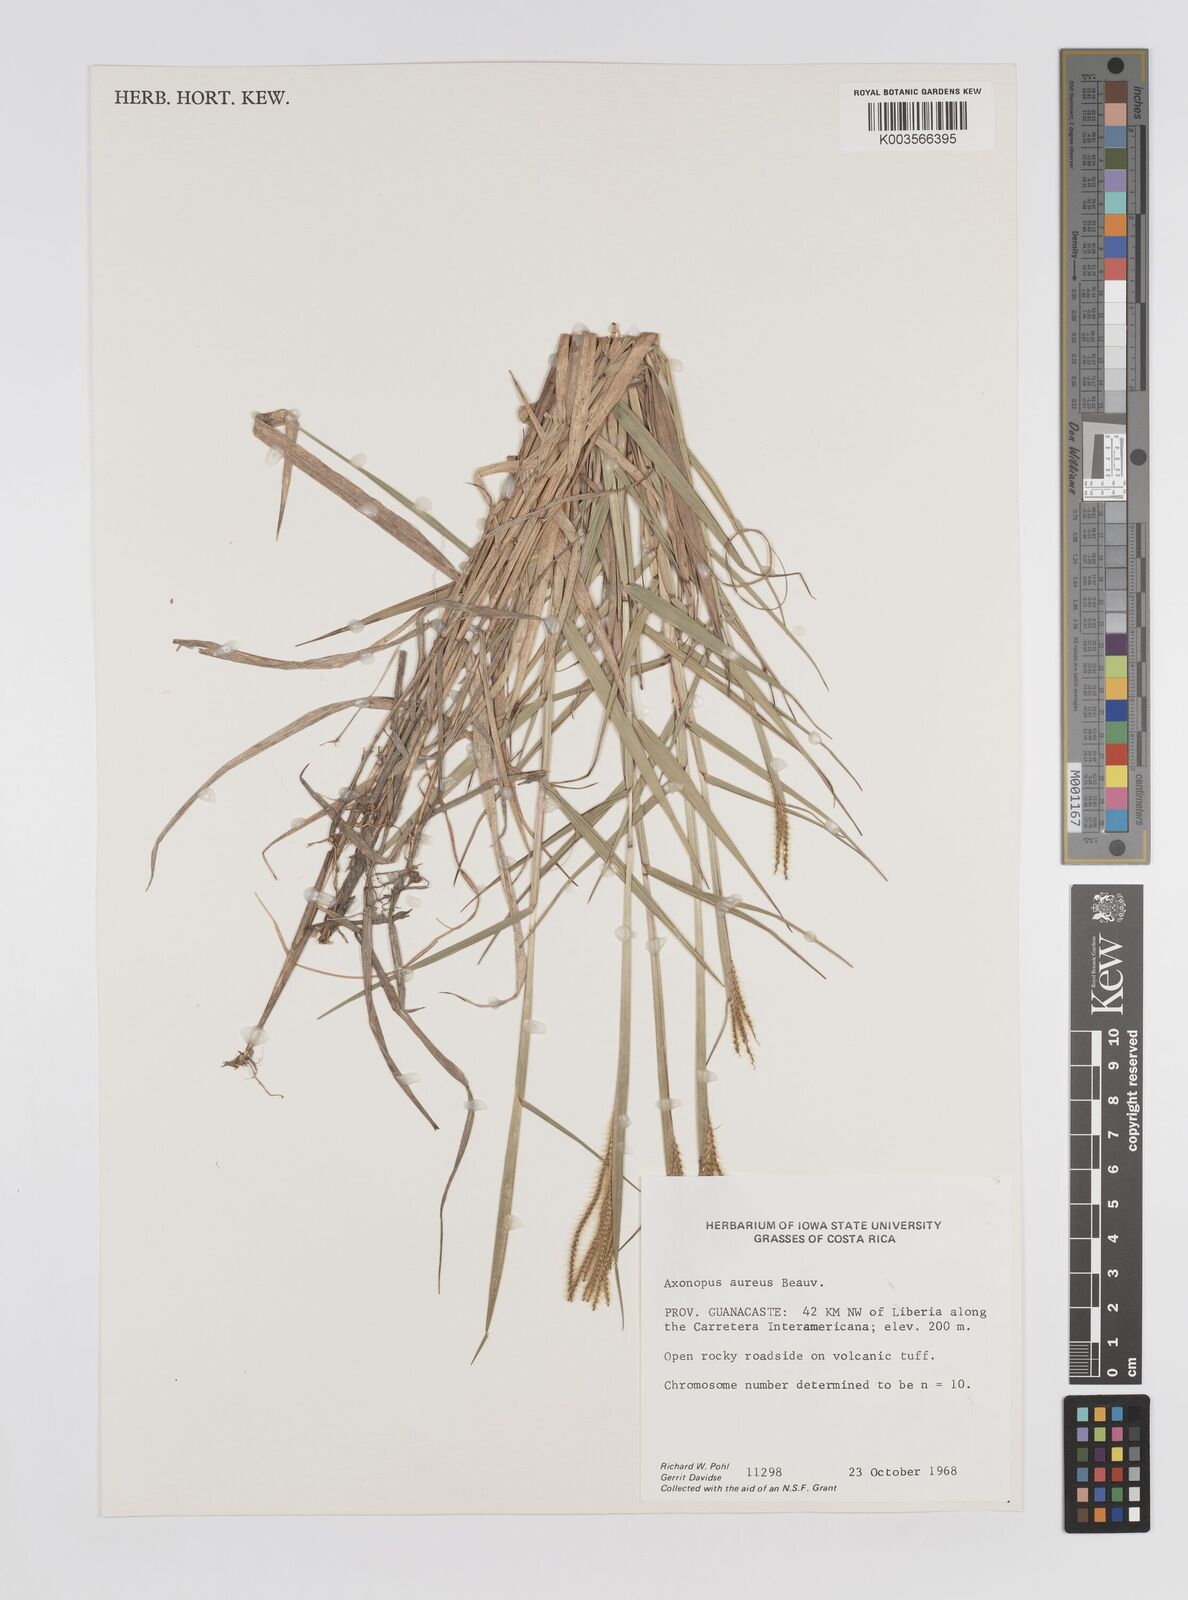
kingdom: Plantae
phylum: Tracheophyta
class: Liliopsida
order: Poales
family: Poaceae
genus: Axonopus
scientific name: Axonopus aureus
